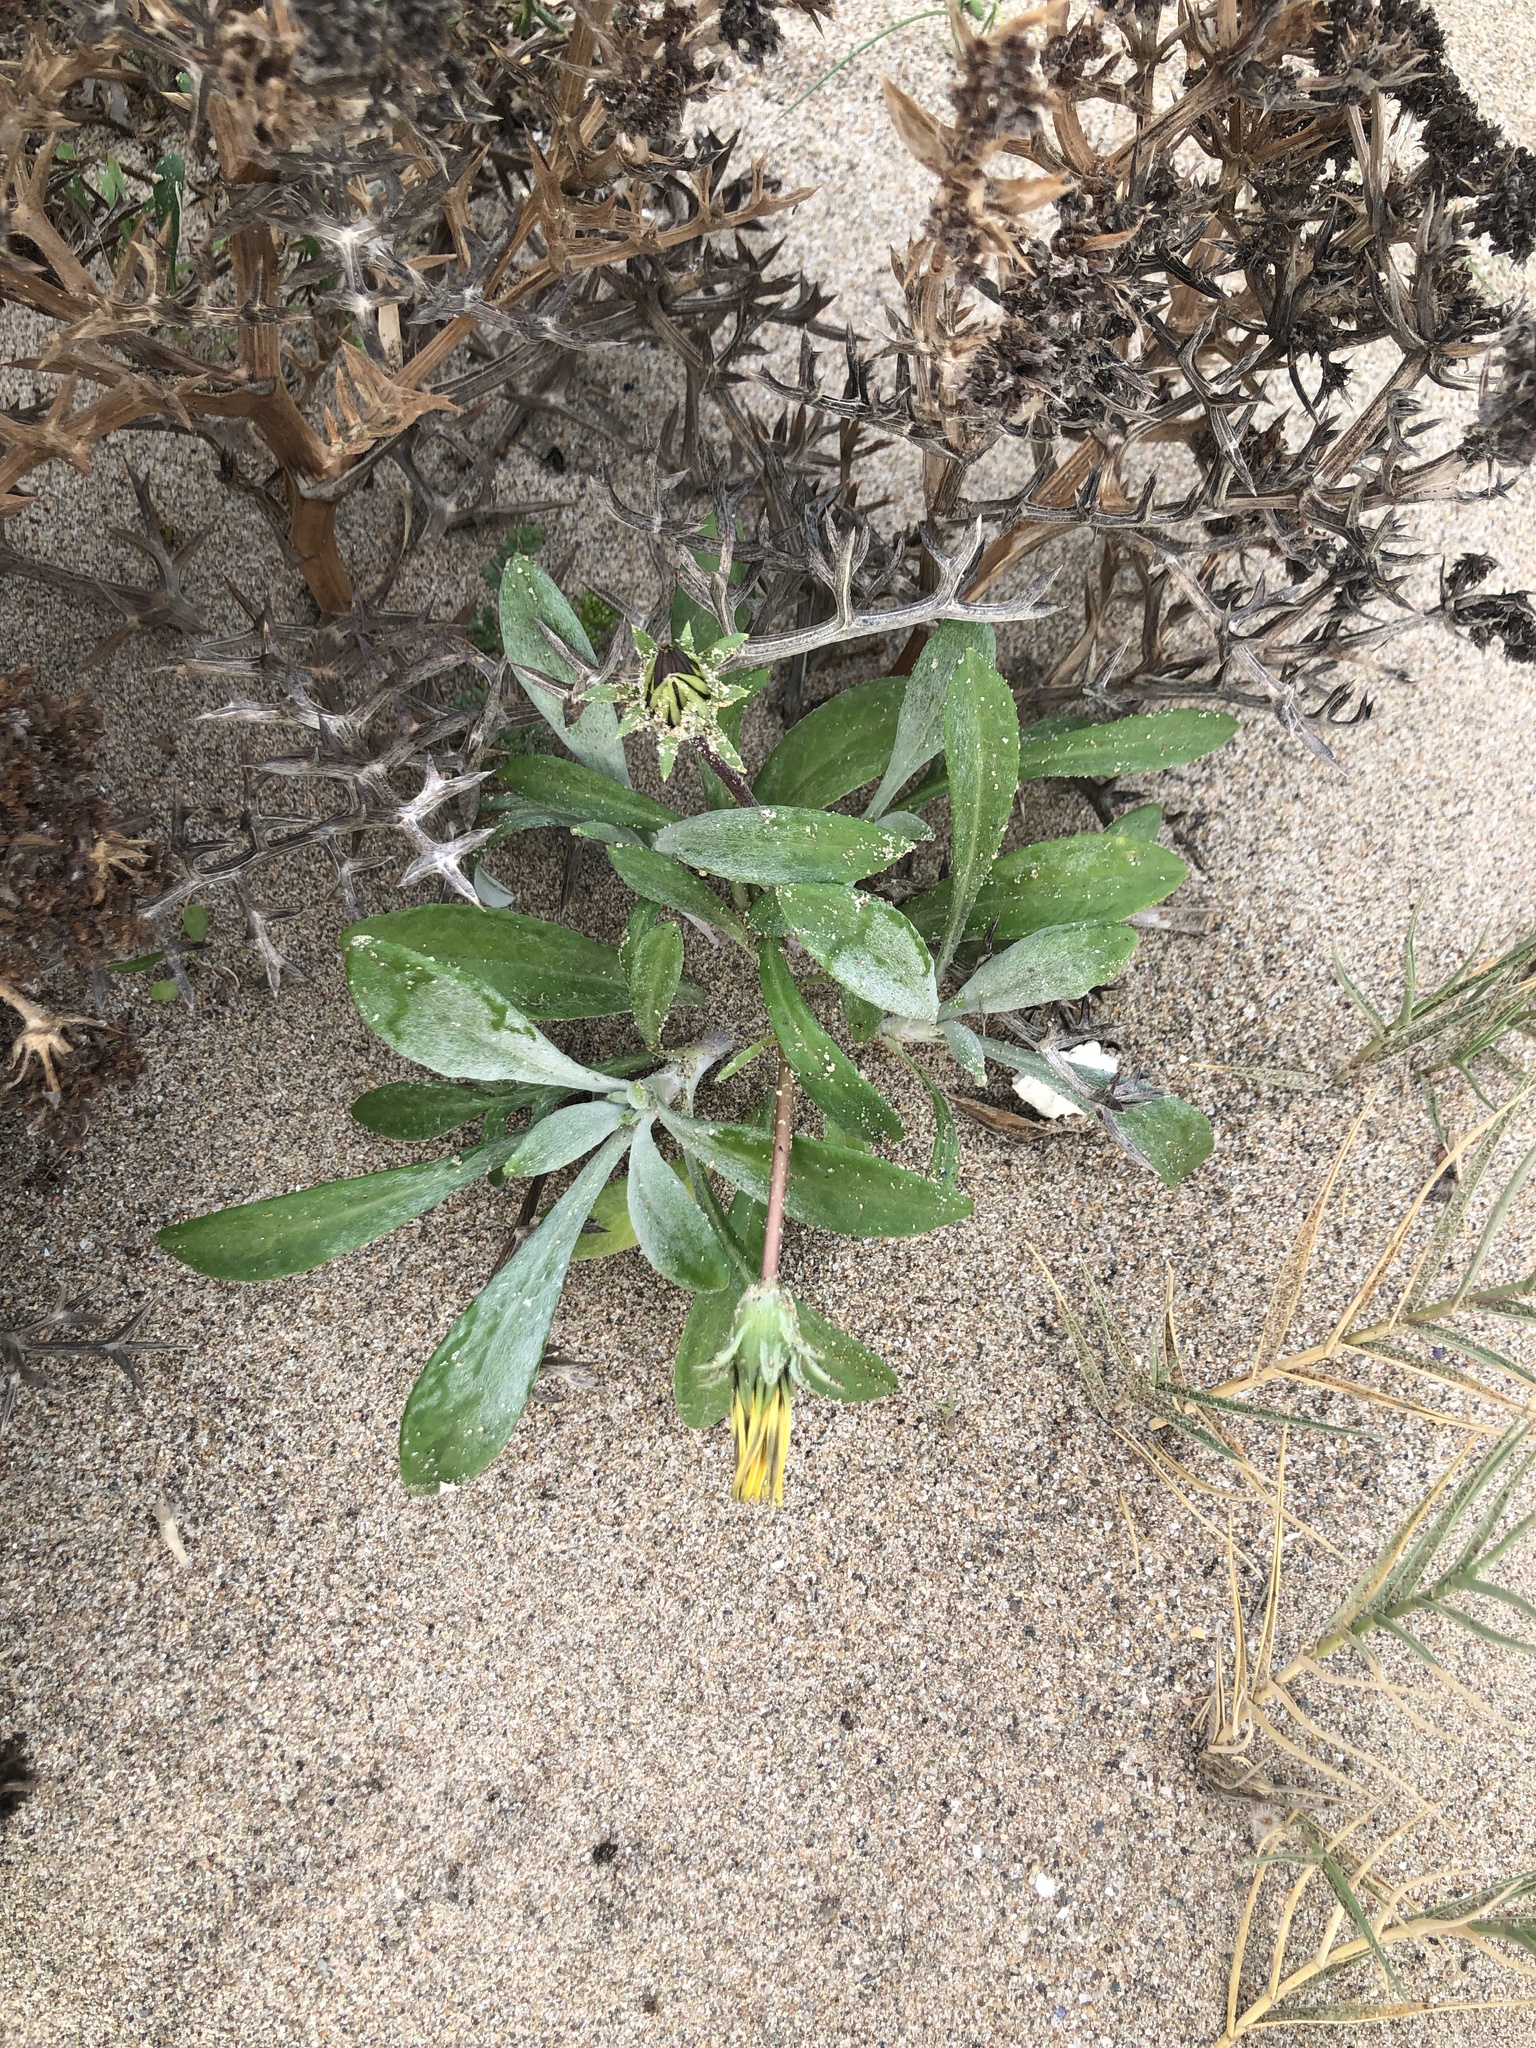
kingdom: Plantae
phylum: Tracheophyta
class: Magnoliopsida
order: Asterales
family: Asteraceae
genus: Gazania
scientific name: Gazania rigens
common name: Treasureflower
